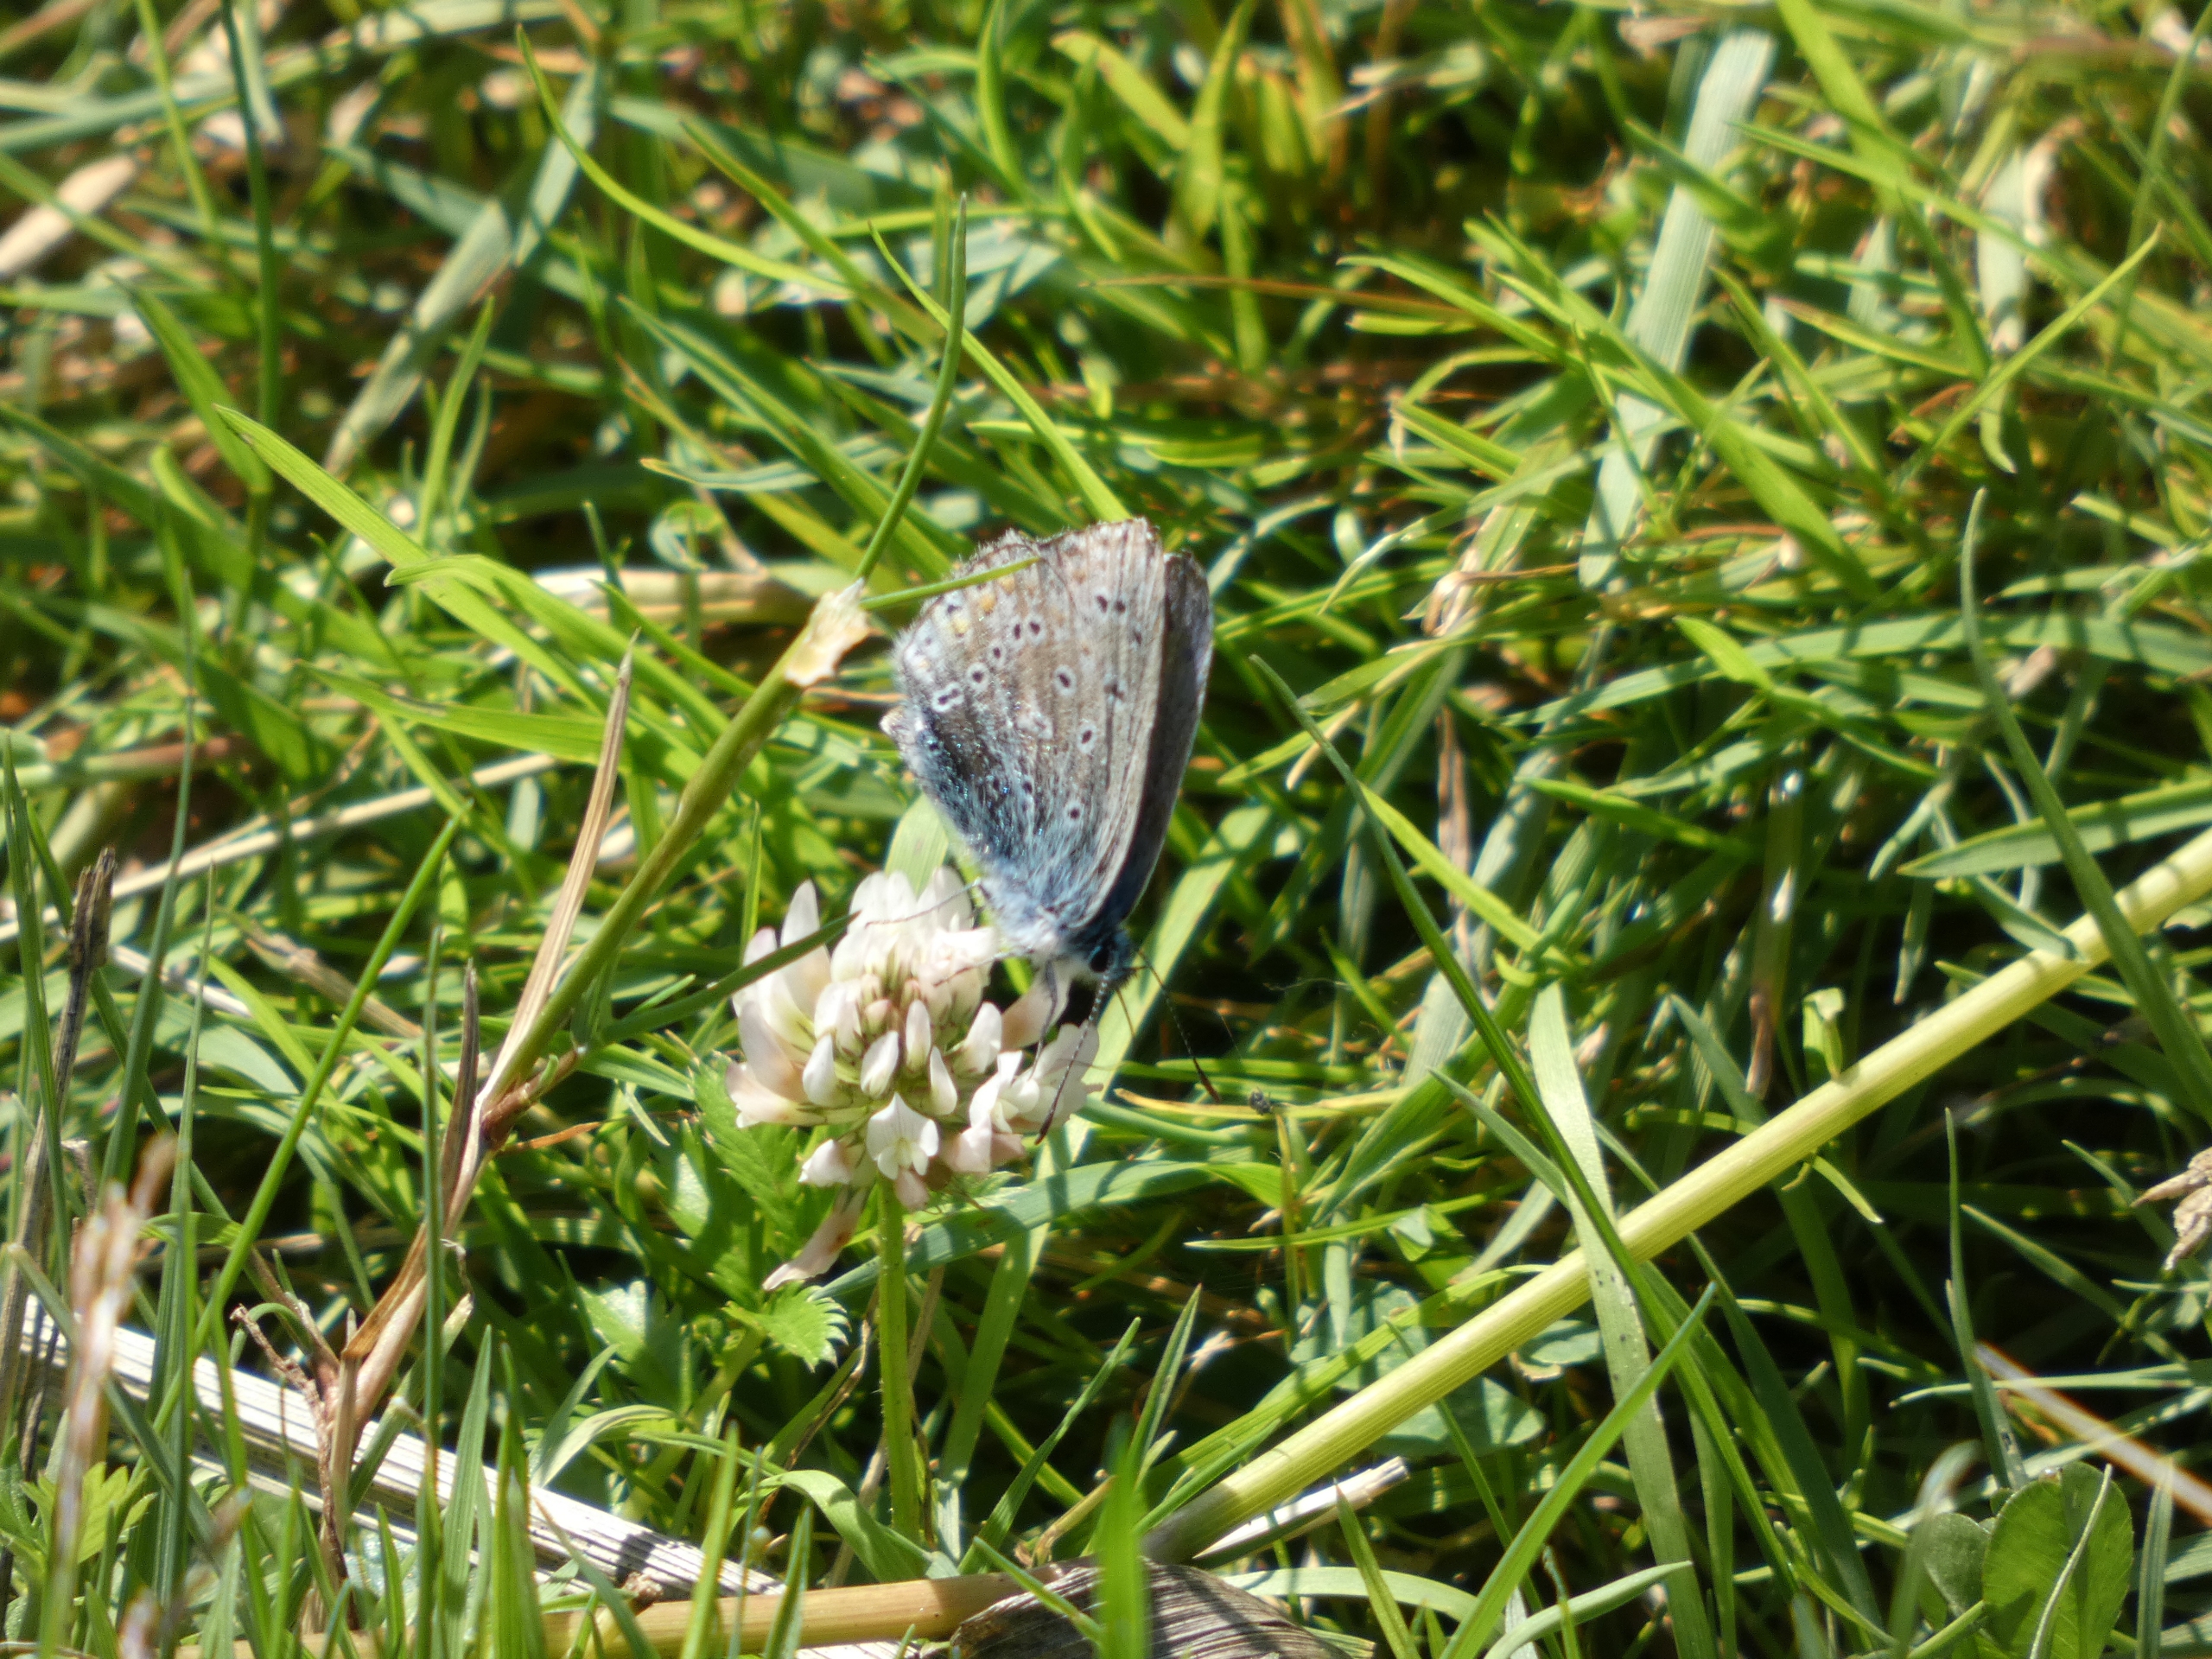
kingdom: Animalia
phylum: Arthropoda
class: Insecta
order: Lepidoptera
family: Lycaenidae
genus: Polyommatus
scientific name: Polyommatus icarus
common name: Almindelig blåfugl
